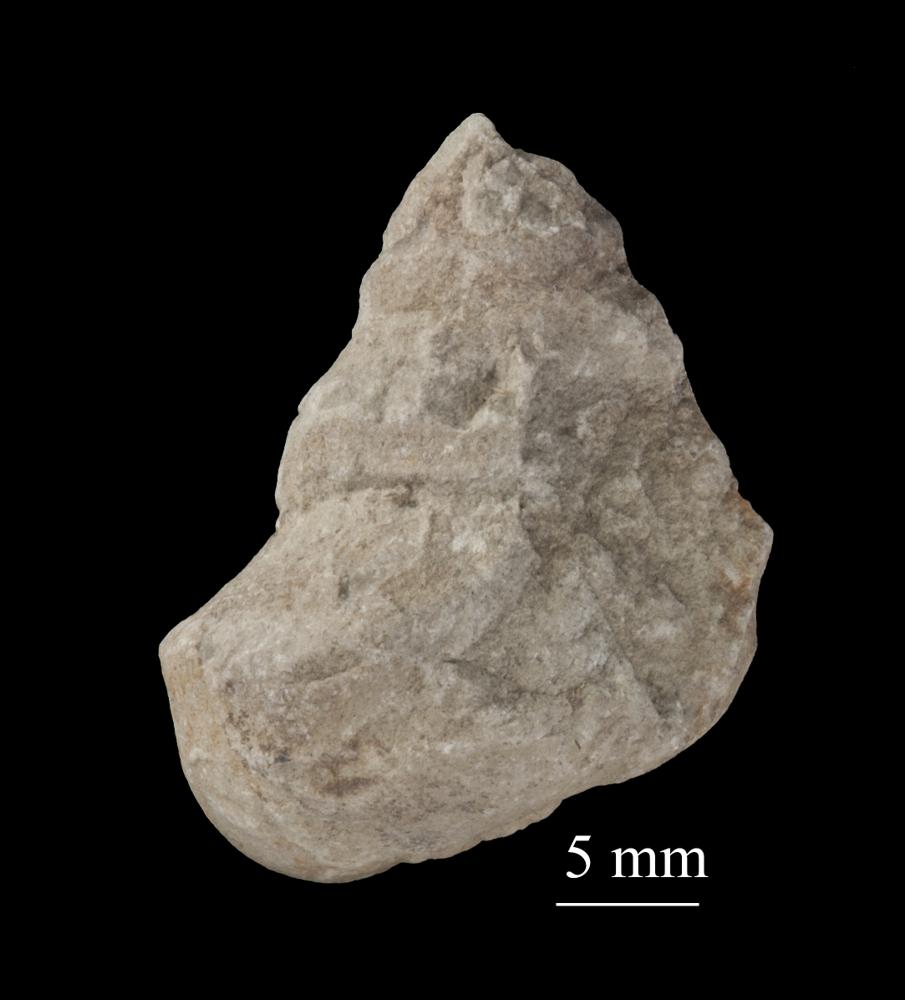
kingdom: Animalia
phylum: Mollusca
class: Gastropoda
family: Lophospiridae
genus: Ruedemannia
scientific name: Ruedemannia Worthenia borkholmiensis
